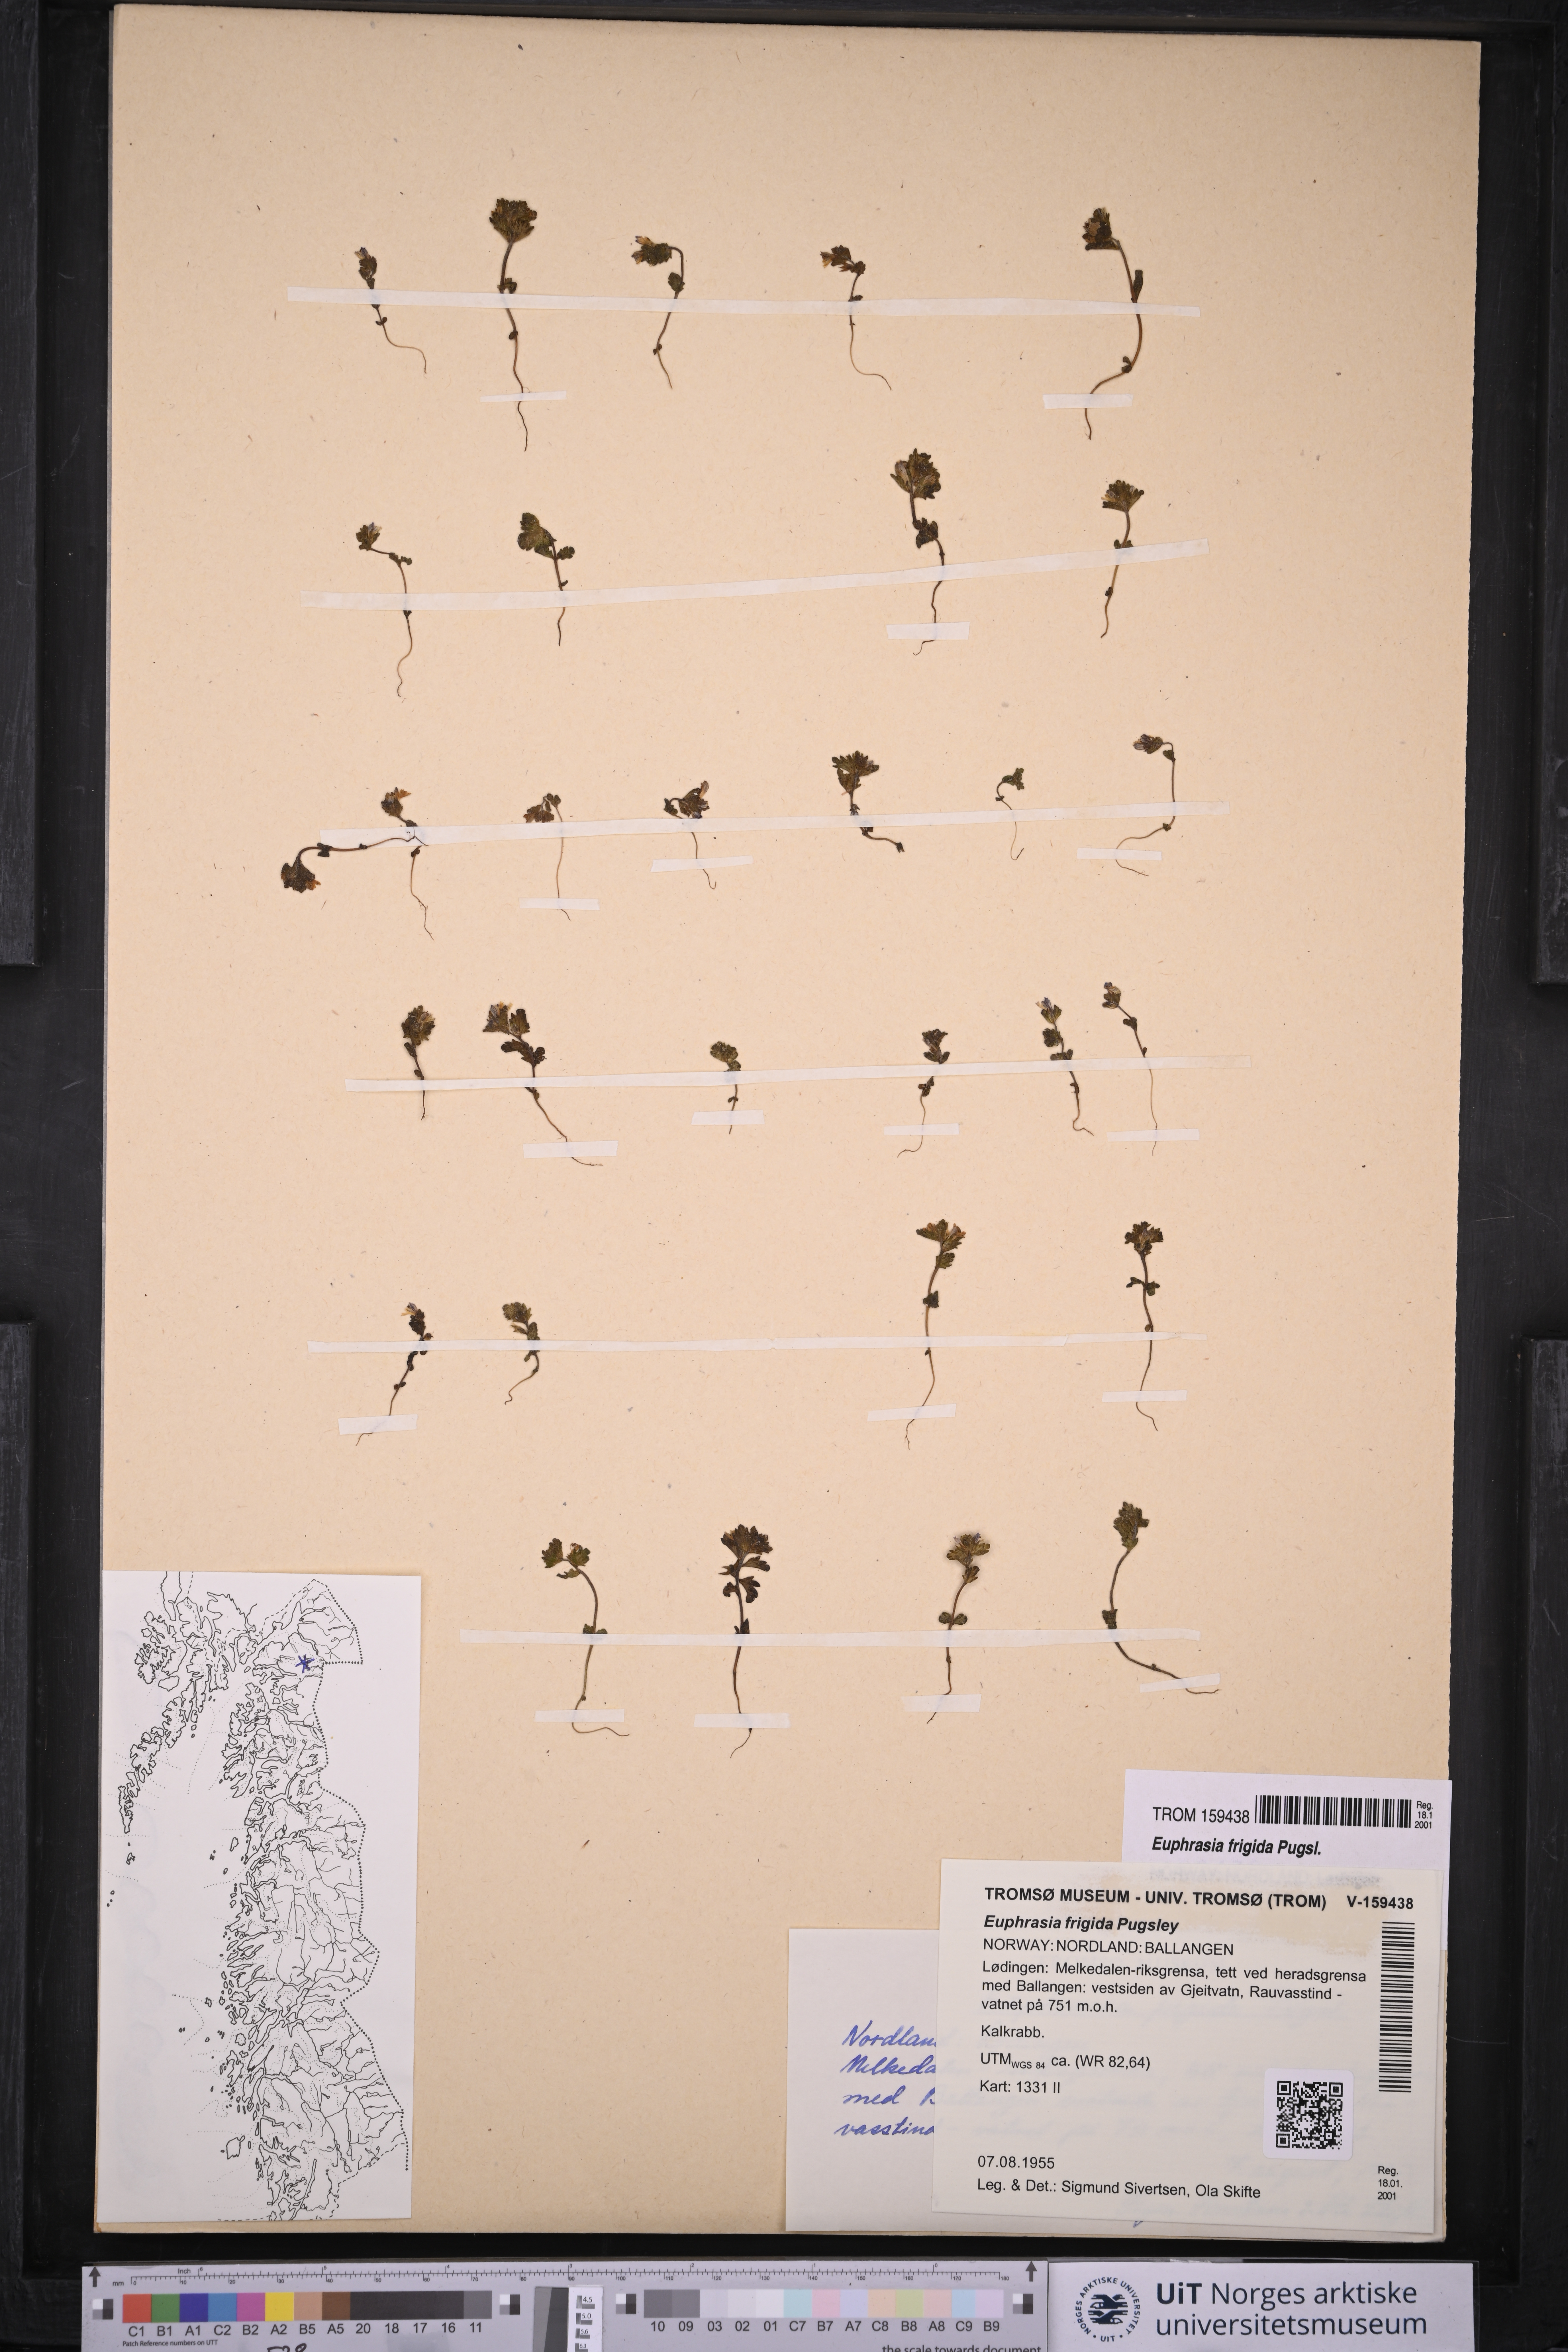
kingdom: Plantae
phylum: Tracheophyta
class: Magnoliopsida
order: Lamiales
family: Orobanchaceae
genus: Euphrasia
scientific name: Euphrasia frigida
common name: An eyebright
